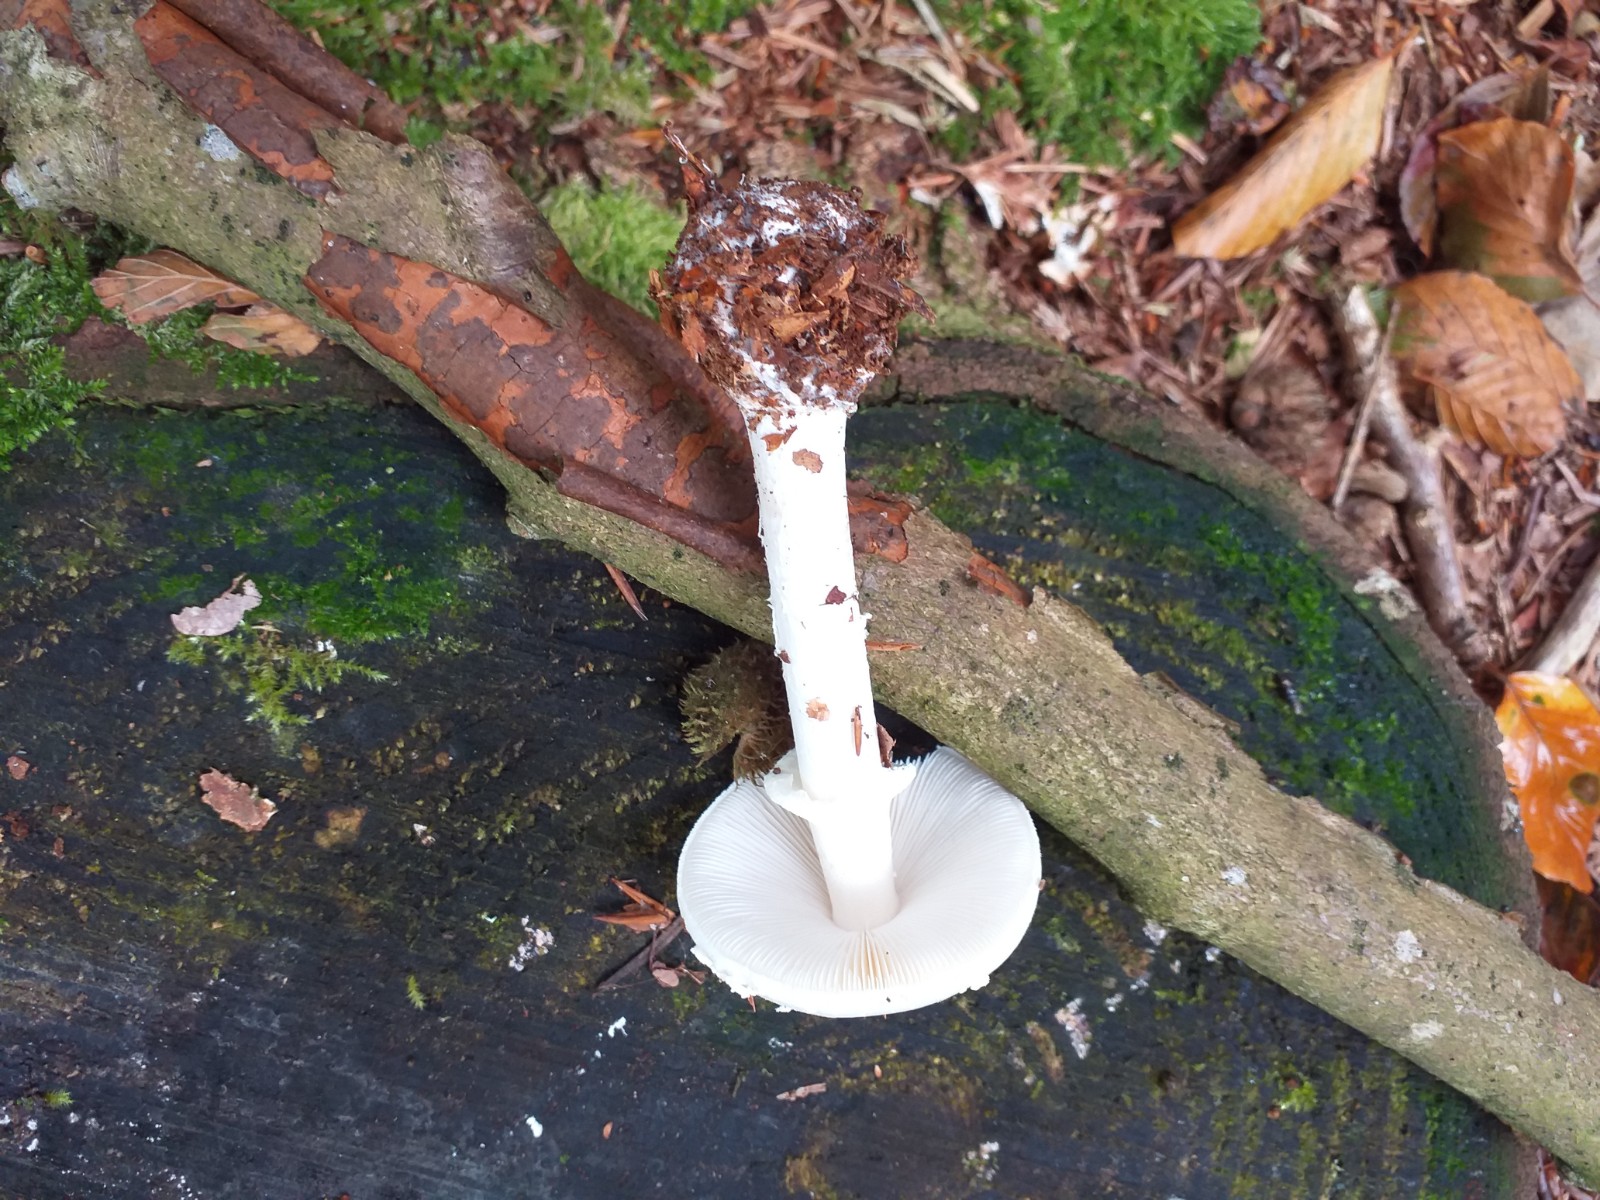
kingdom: Fungi
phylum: Basidiomycota
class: Agaricomycetes
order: Agaricales
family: Amanitaceae
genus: Amanita
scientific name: Amanita citrina
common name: kugleknoldet fluesvamp
